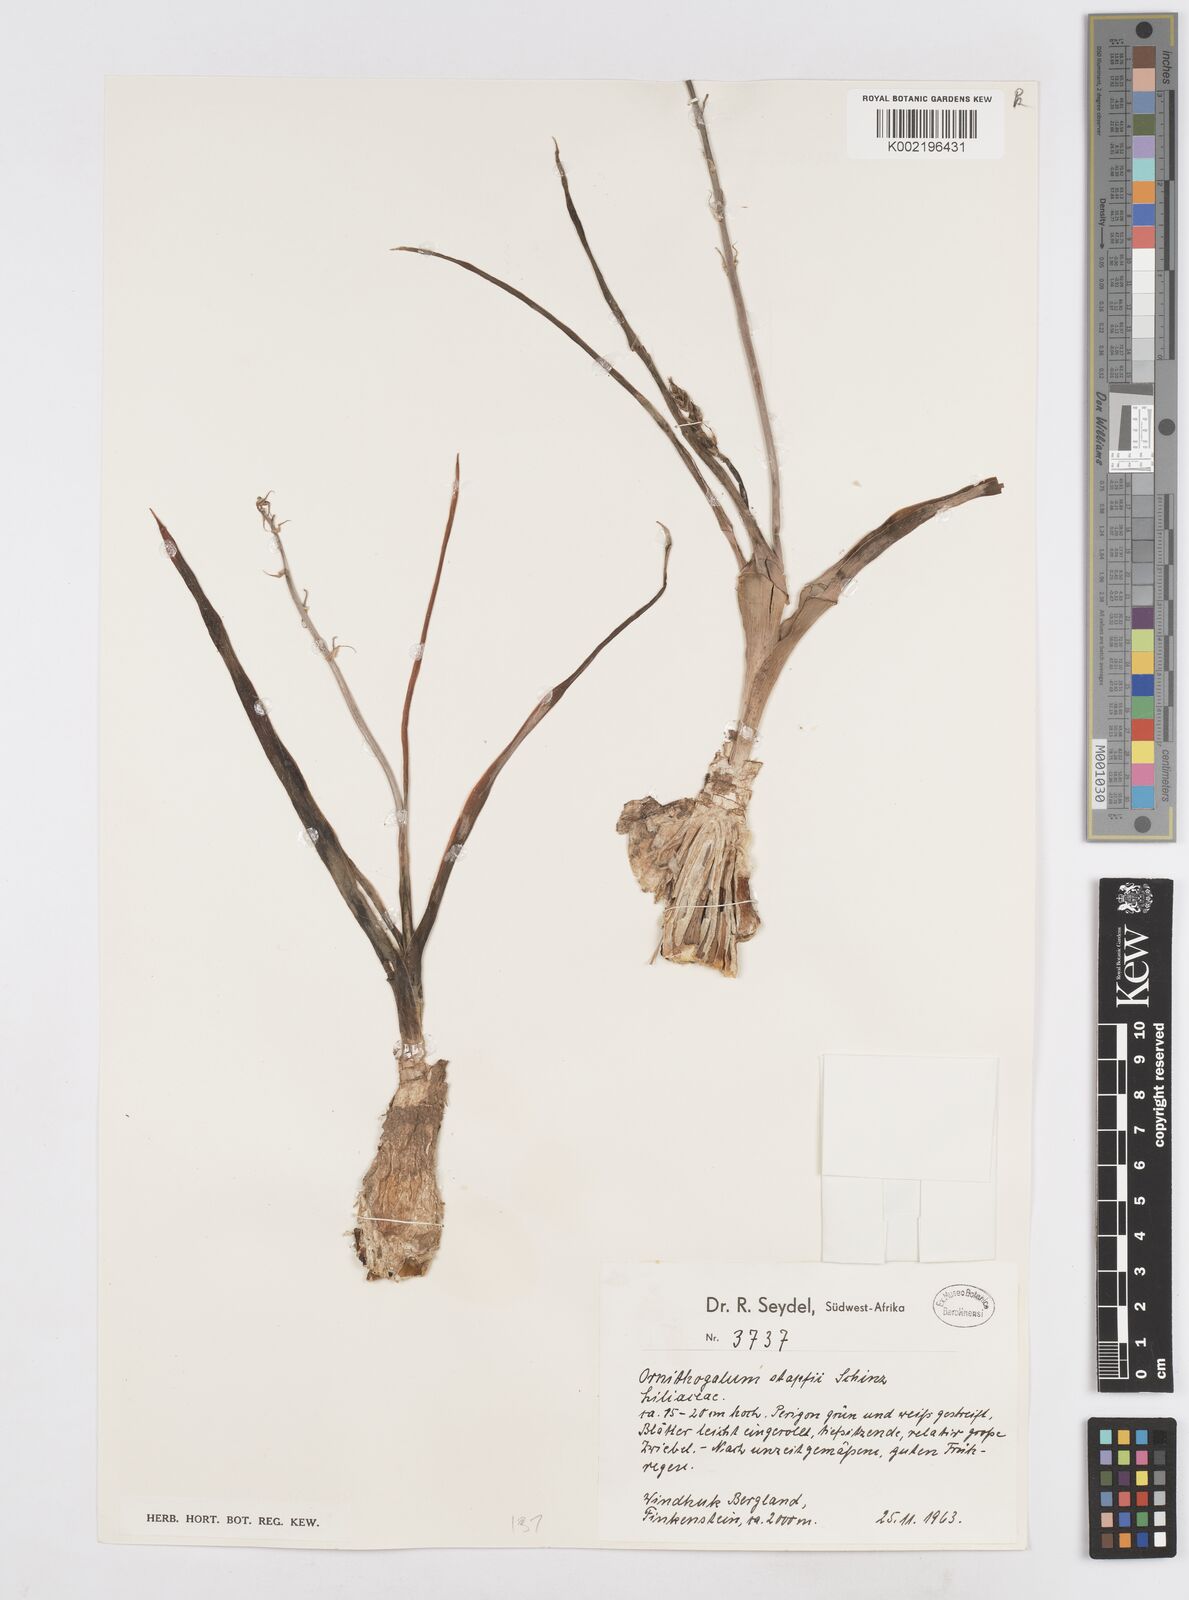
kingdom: Plantae
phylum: Tracheophyta
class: Liliopsida
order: Asparagales
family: Asparagaceae
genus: Albuca
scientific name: Albuca stapffii
